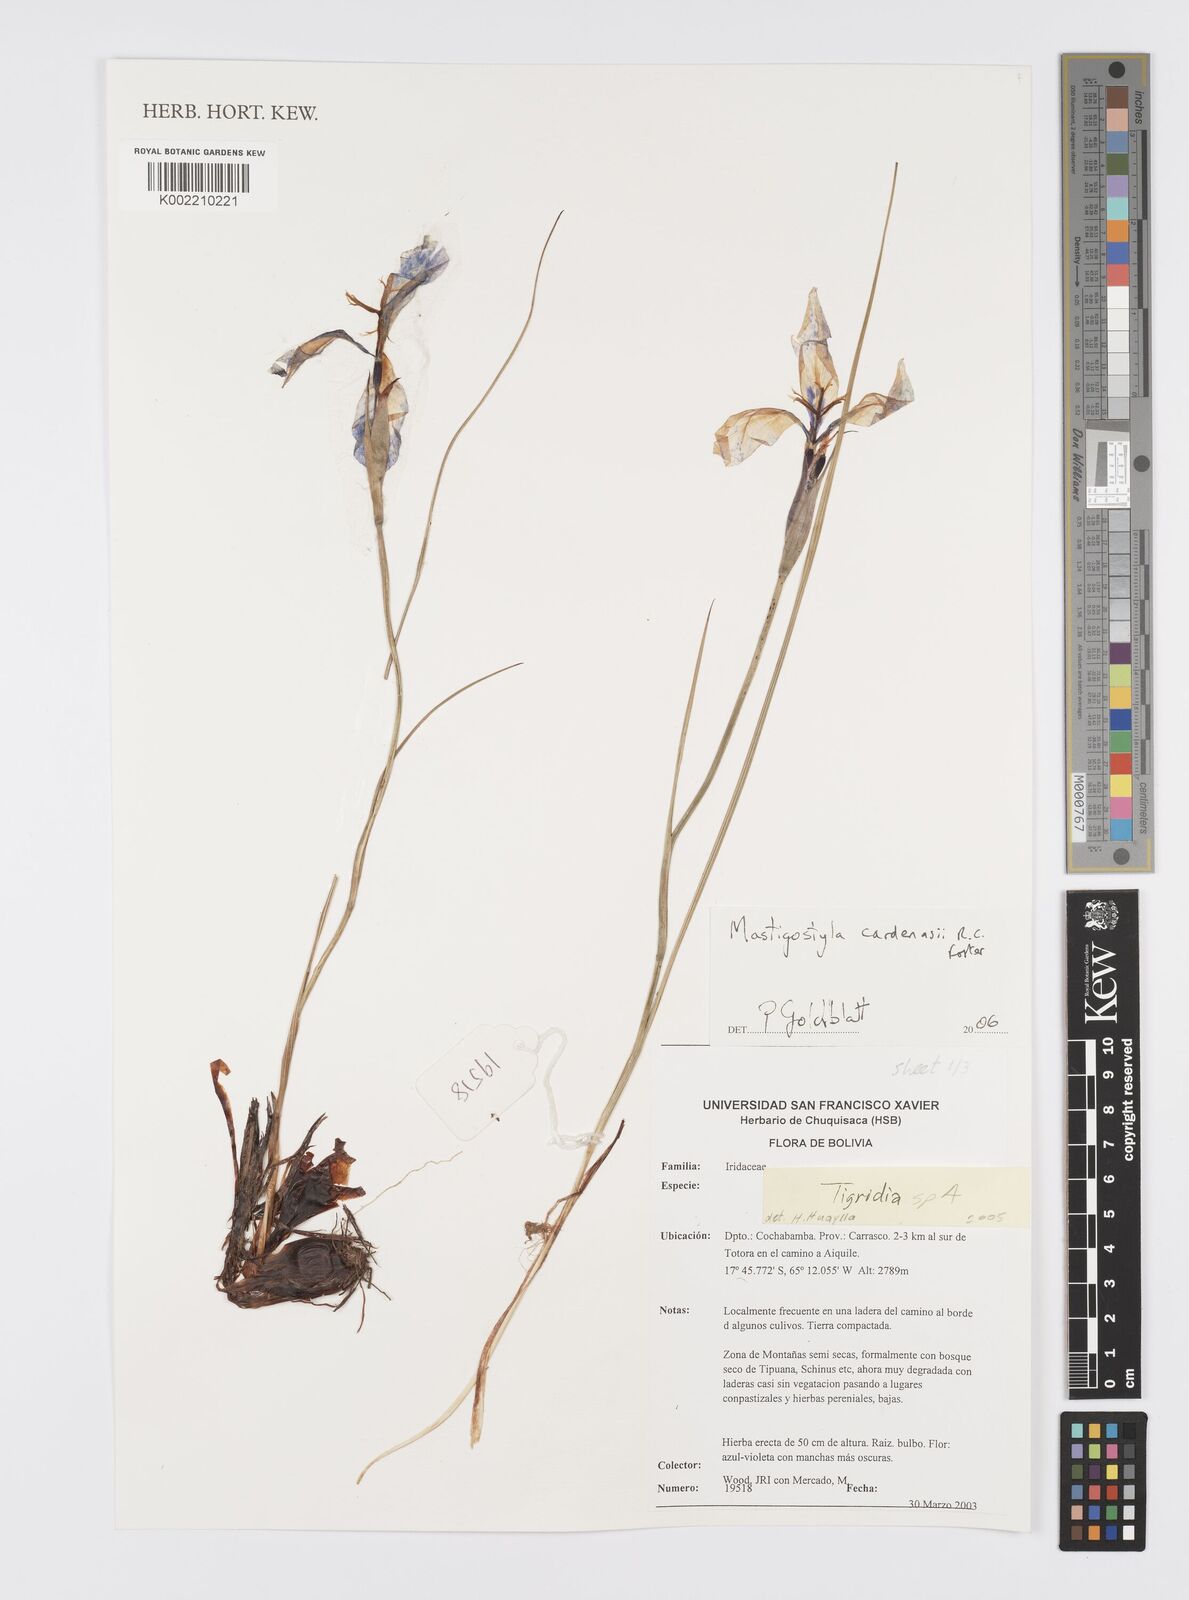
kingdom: Plantae
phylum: Tracheophyta
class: Liliopsida
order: Asparagales
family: Iridaceae
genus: Mastigostyla
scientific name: Mastigostyla cardenasii
